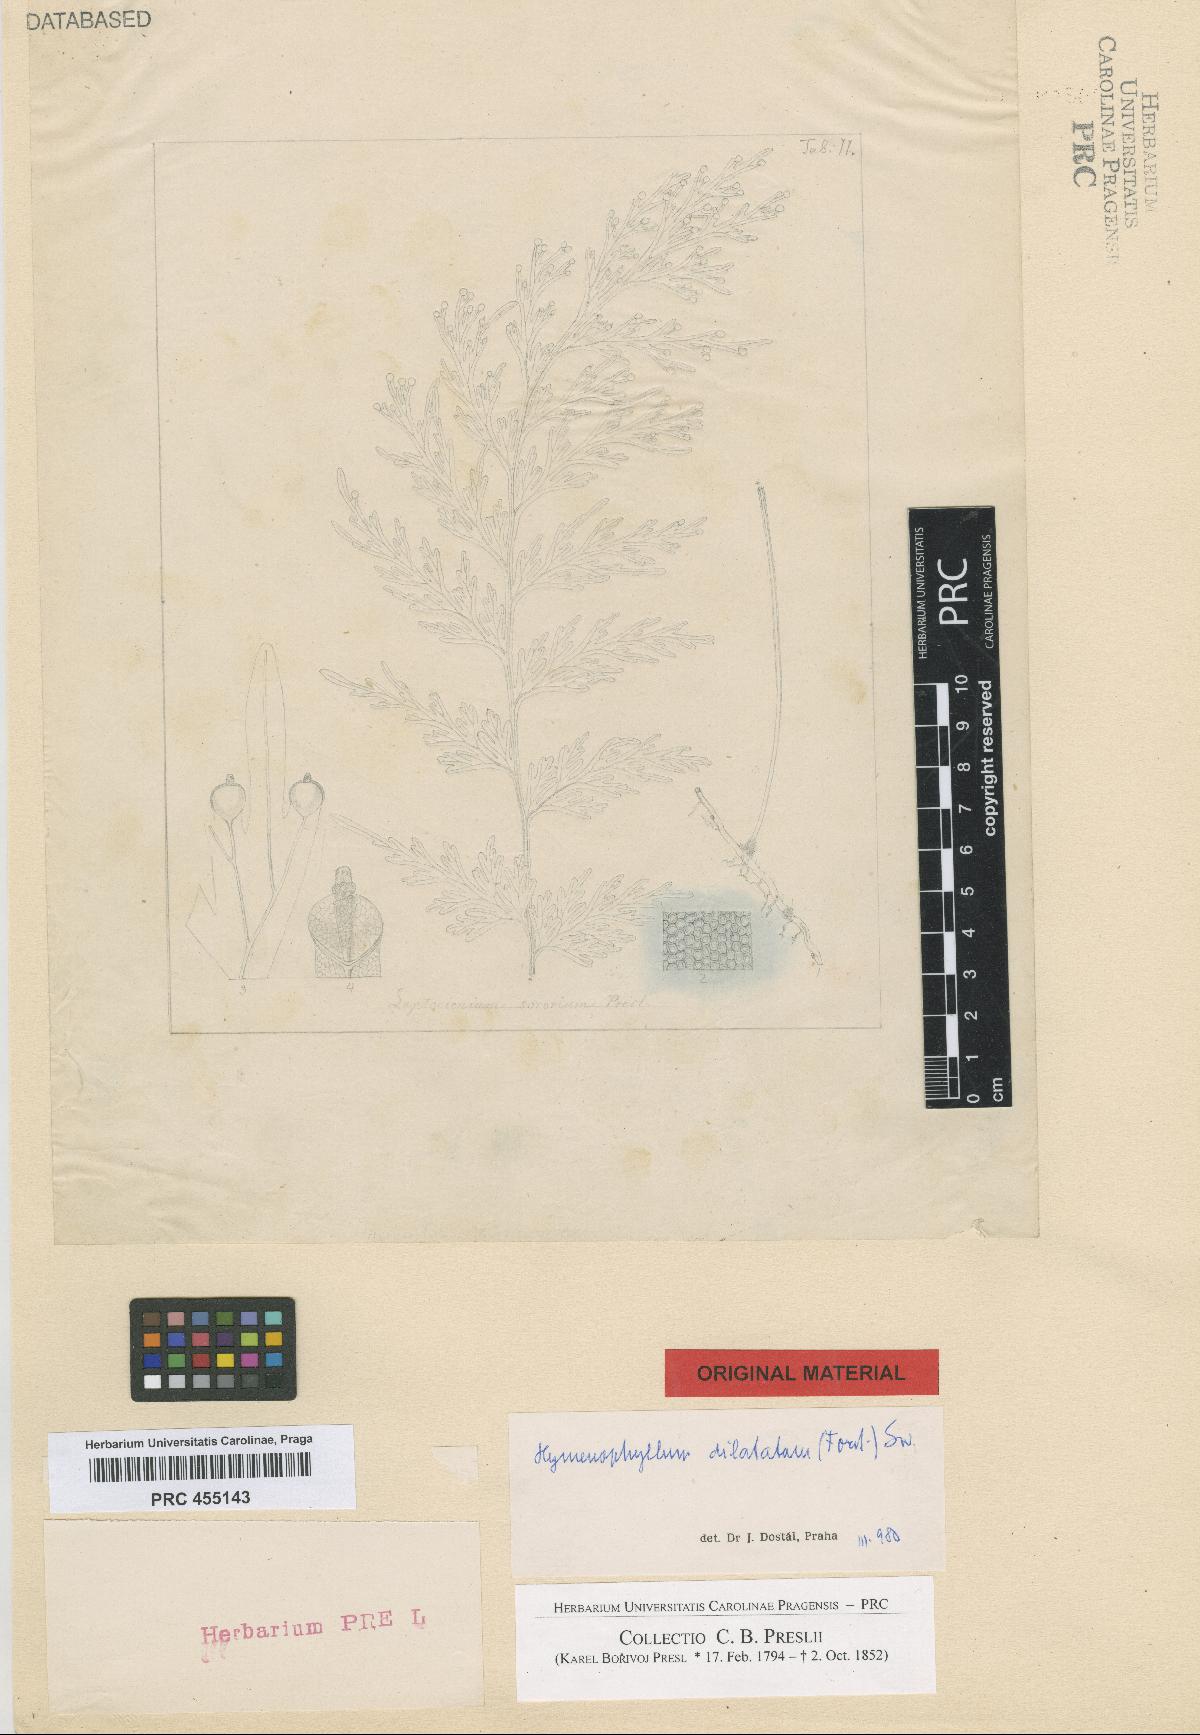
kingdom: Plantae
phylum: Tracheophyta
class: Polypodiopsida
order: Hymenophyllales
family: Hymenophyllaceae
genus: Hymenophyllum
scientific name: Hymenophyllum dilatatum
